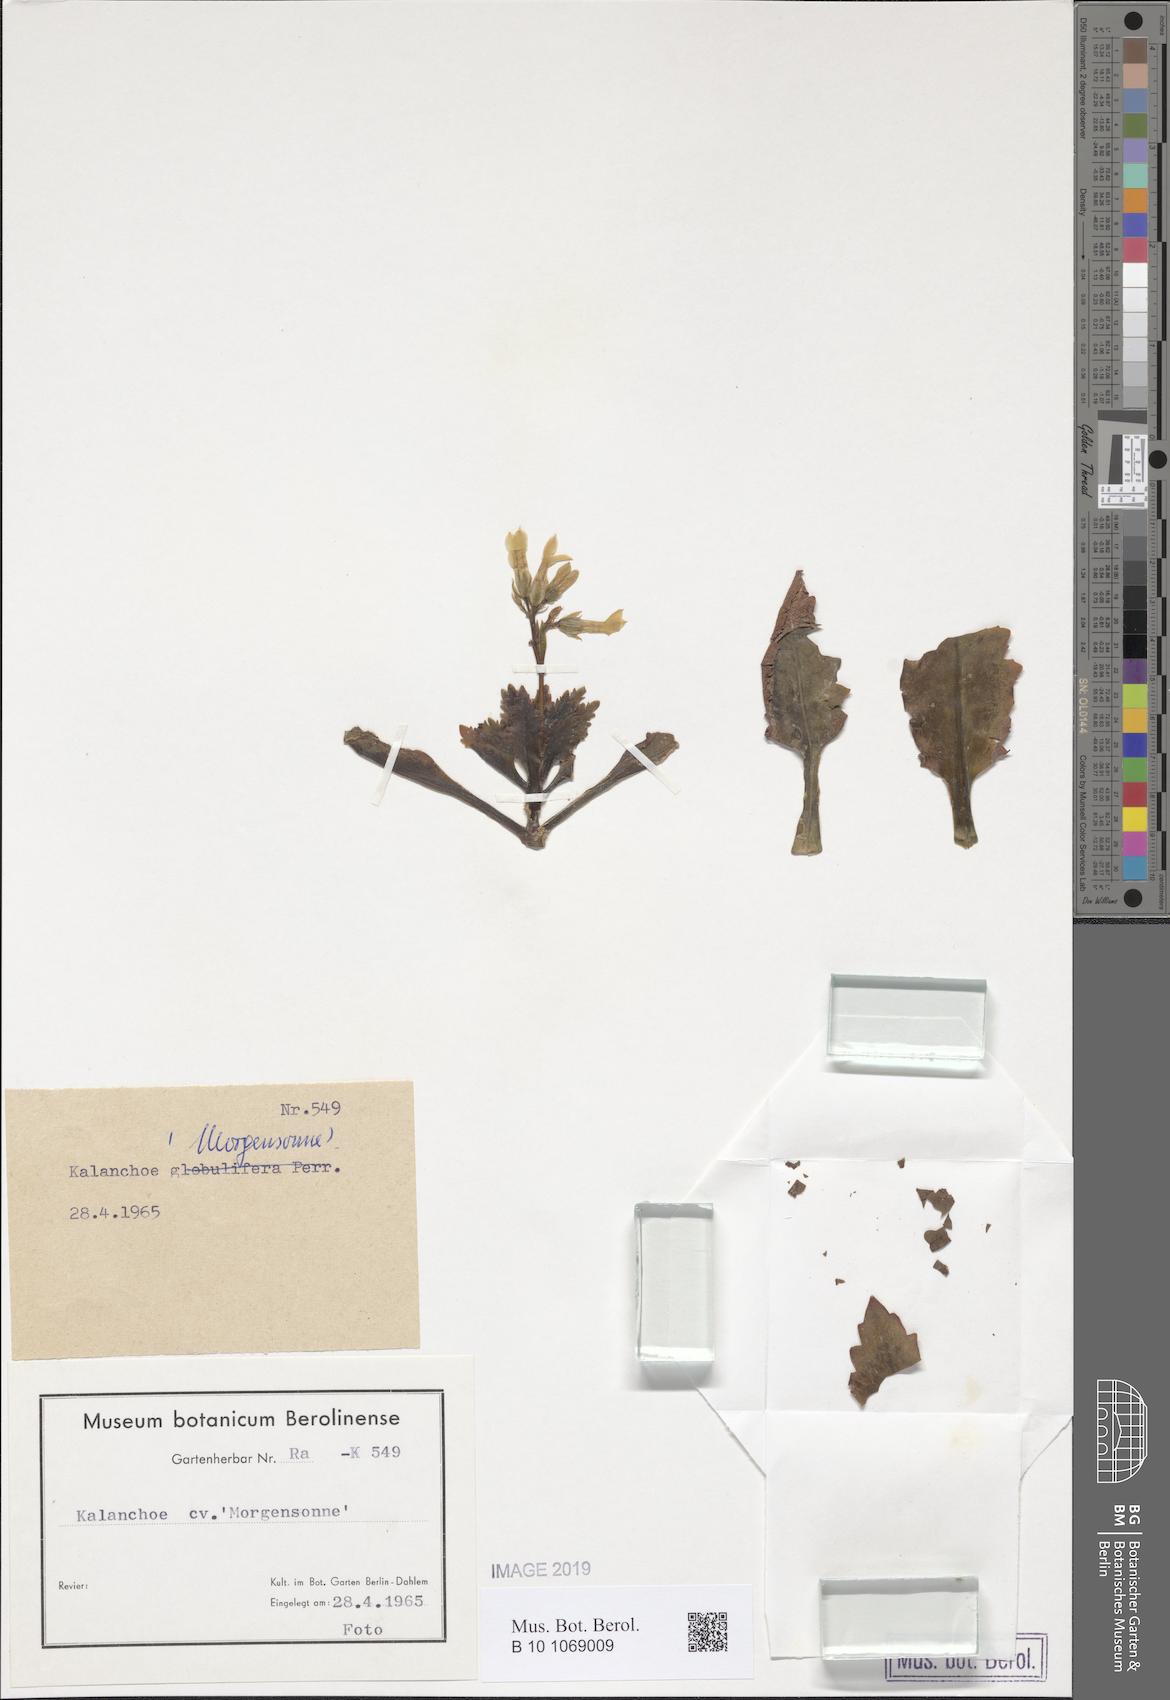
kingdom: Plantae
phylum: Tracheophyta
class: Magnoliopsida
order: Saxifragales
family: Crassulaceae
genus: Kalanchoe
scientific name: Kalanchoe
